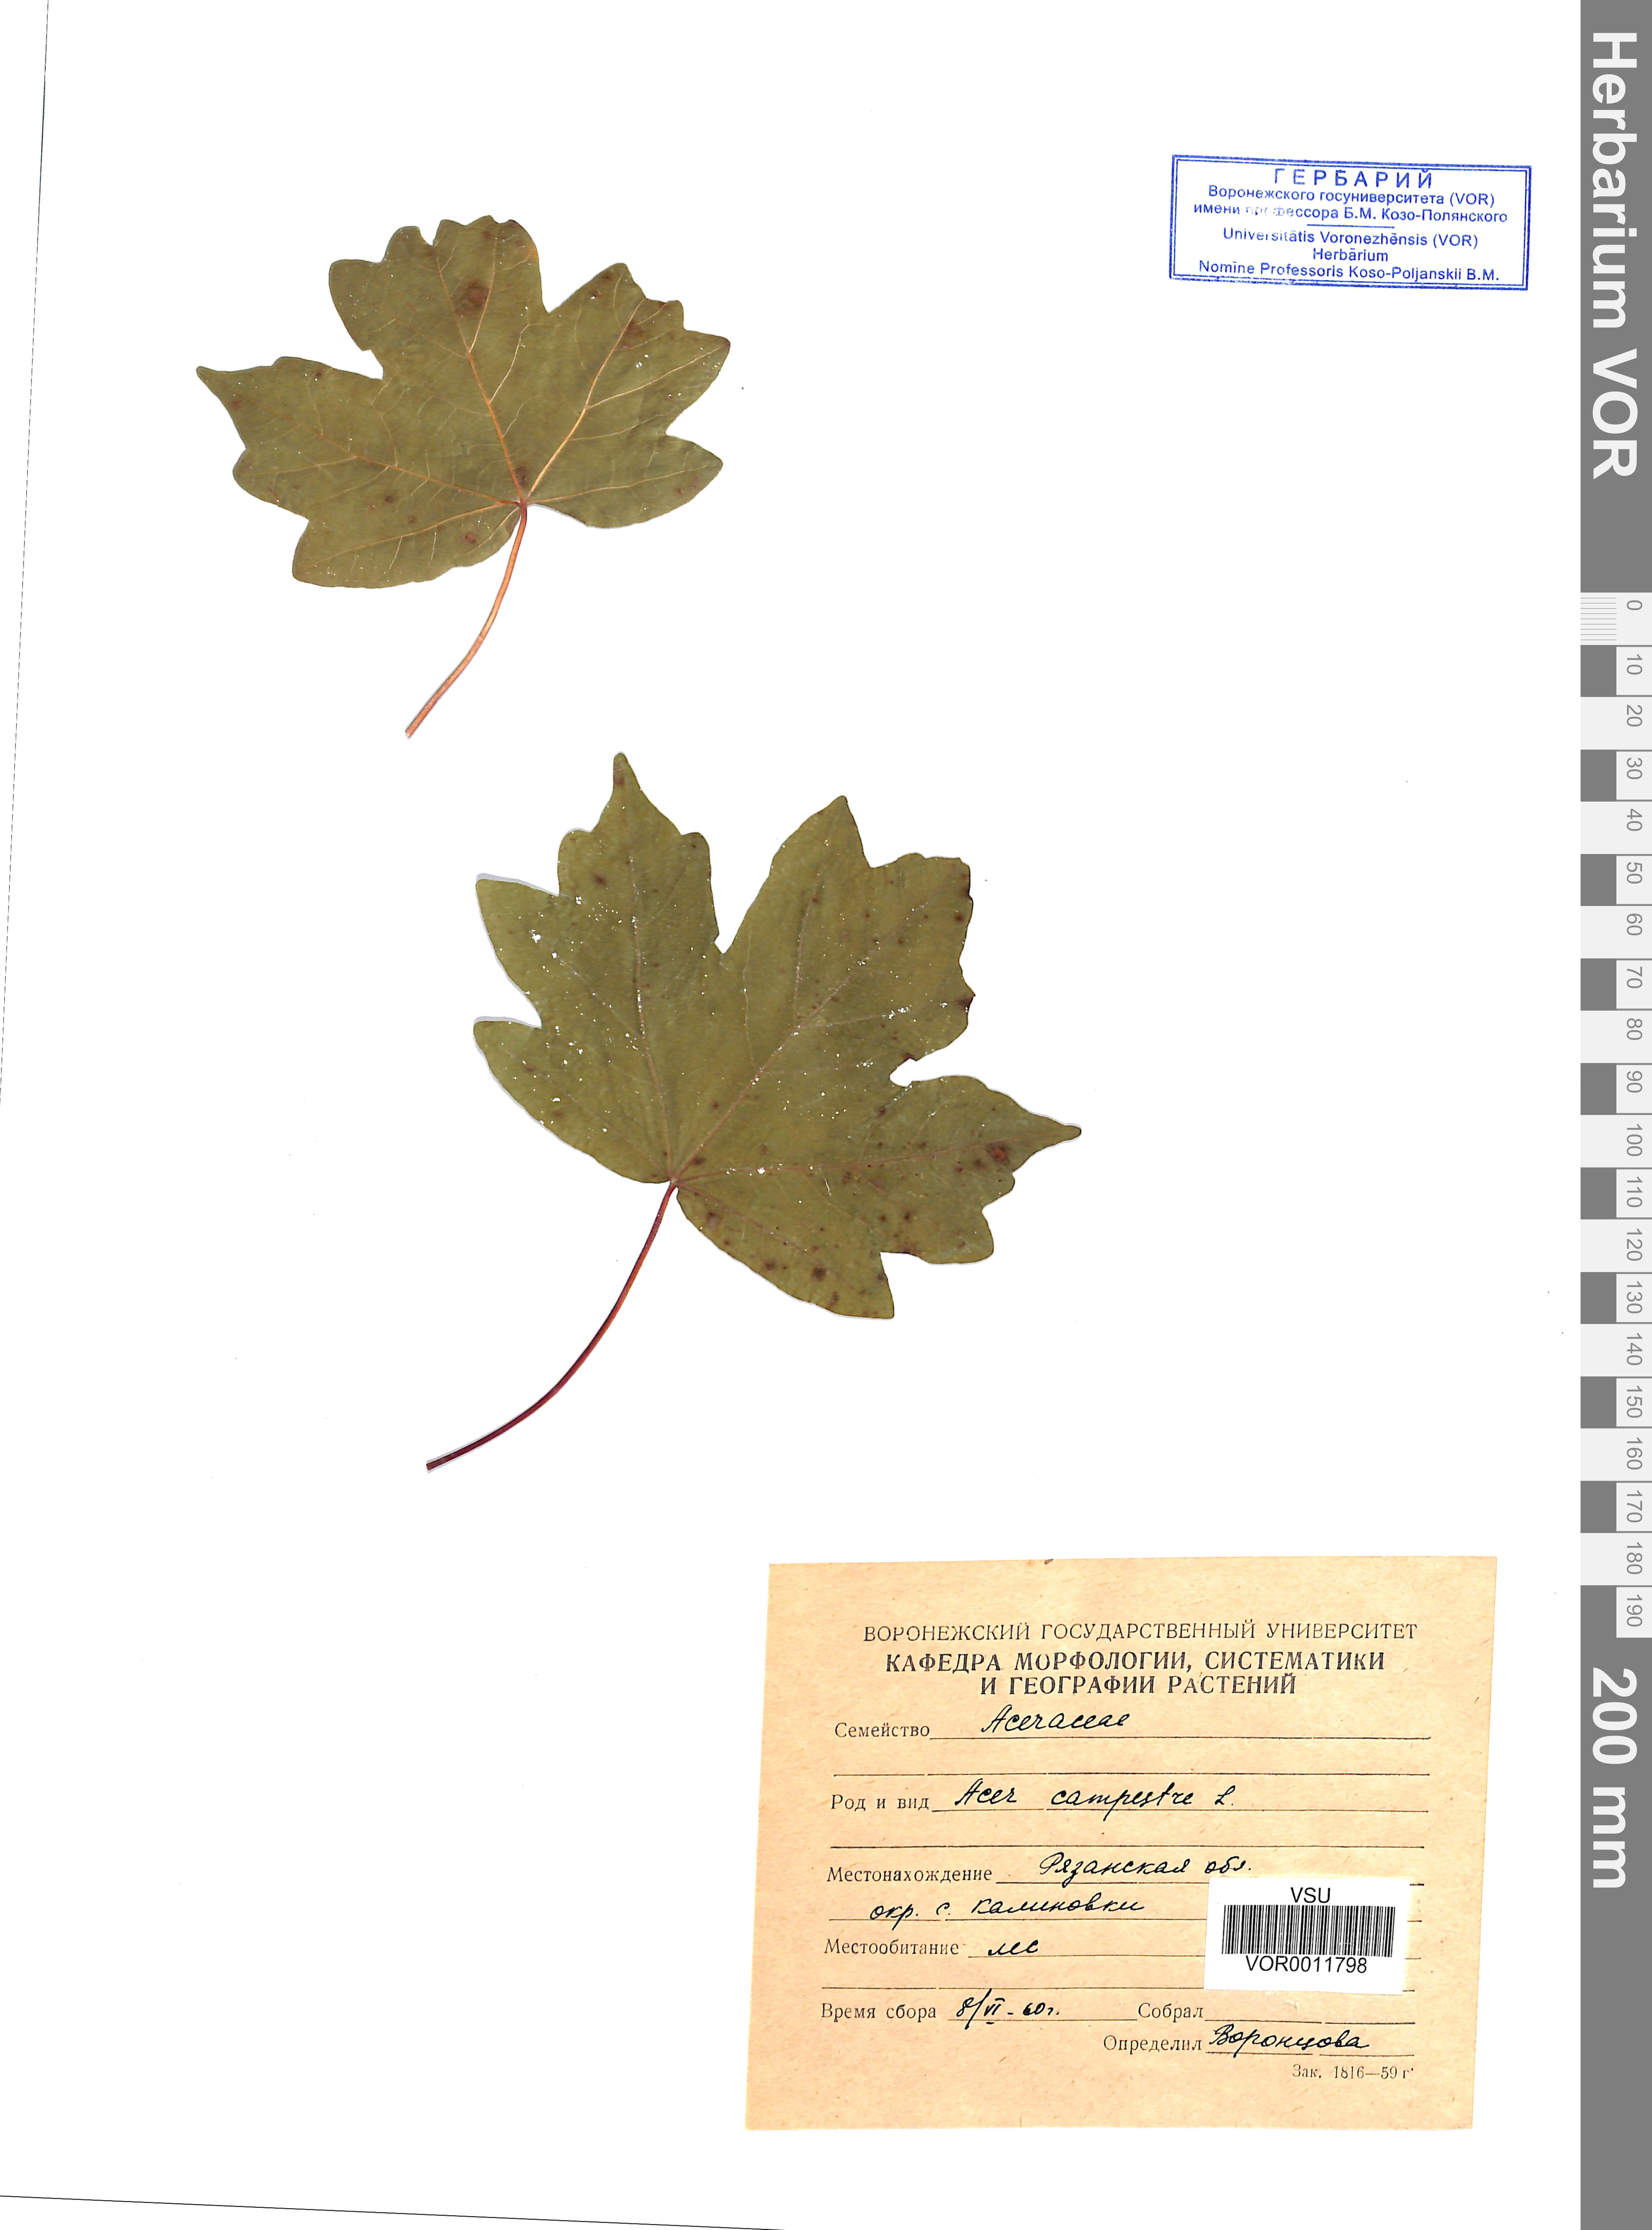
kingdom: Plantae
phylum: Tracheophyta
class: Magnoliopsida
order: Sapindales
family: Sapindaceae
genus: Acer
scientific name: Acer campestre
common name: Field maple
